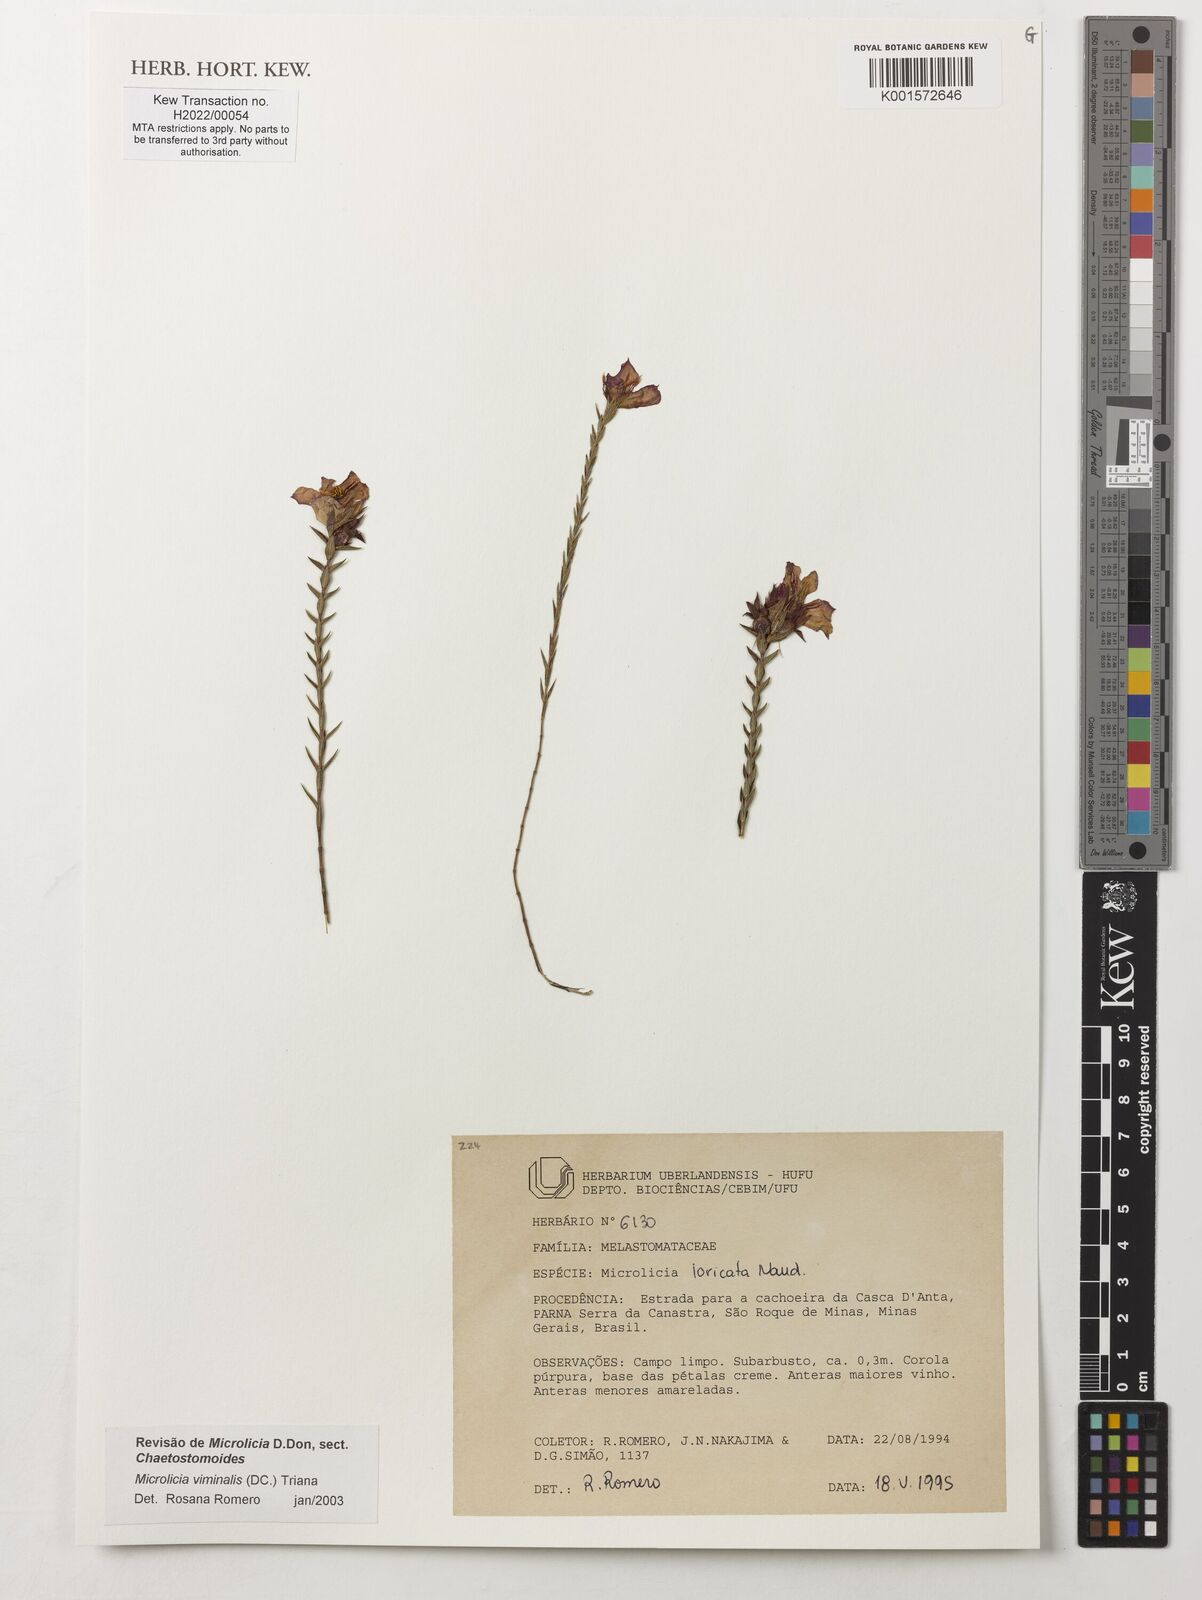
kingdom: Plantae
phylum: Tracheophyta
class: Magnoliopsida
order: Myrtales
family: Melastomataceae
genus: Microlicia
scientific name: Microlicia viminalis
